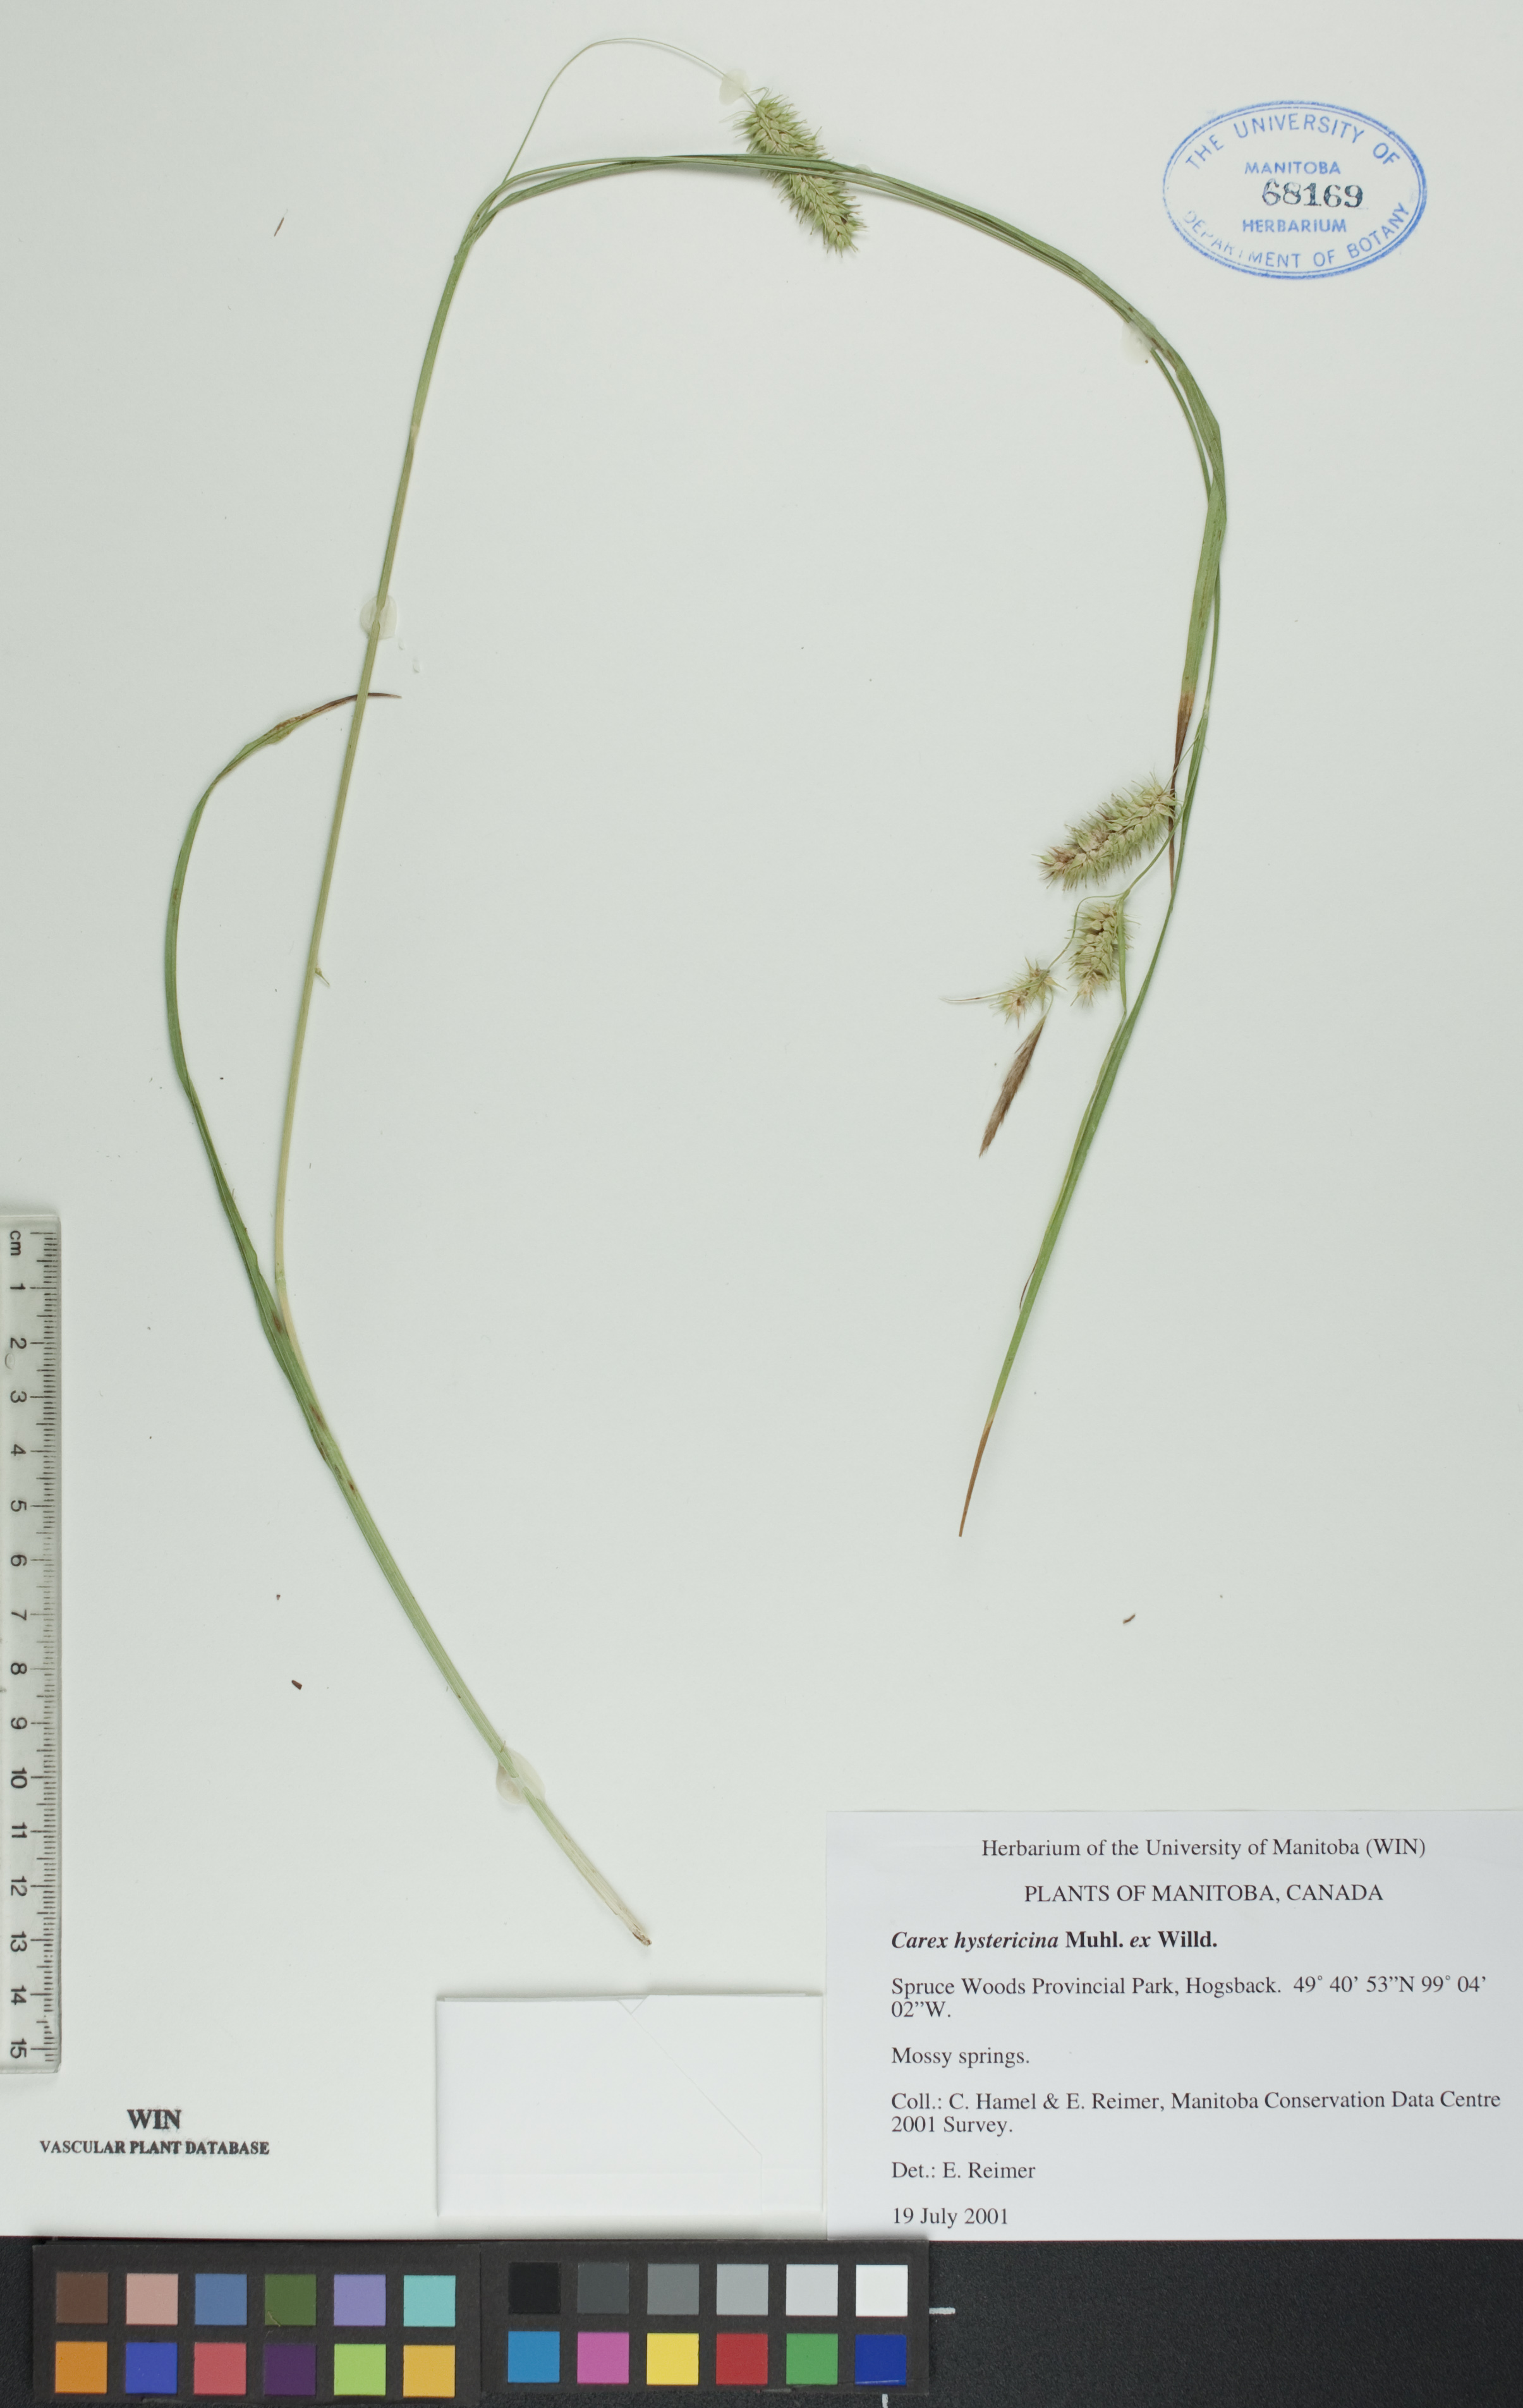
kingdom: Plantae
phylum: Tracheophyta
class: Liliopsida
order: Poales
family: Cyperaceae
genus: Carex
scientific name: Carex hystericina
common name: Bottlebrush sedge
